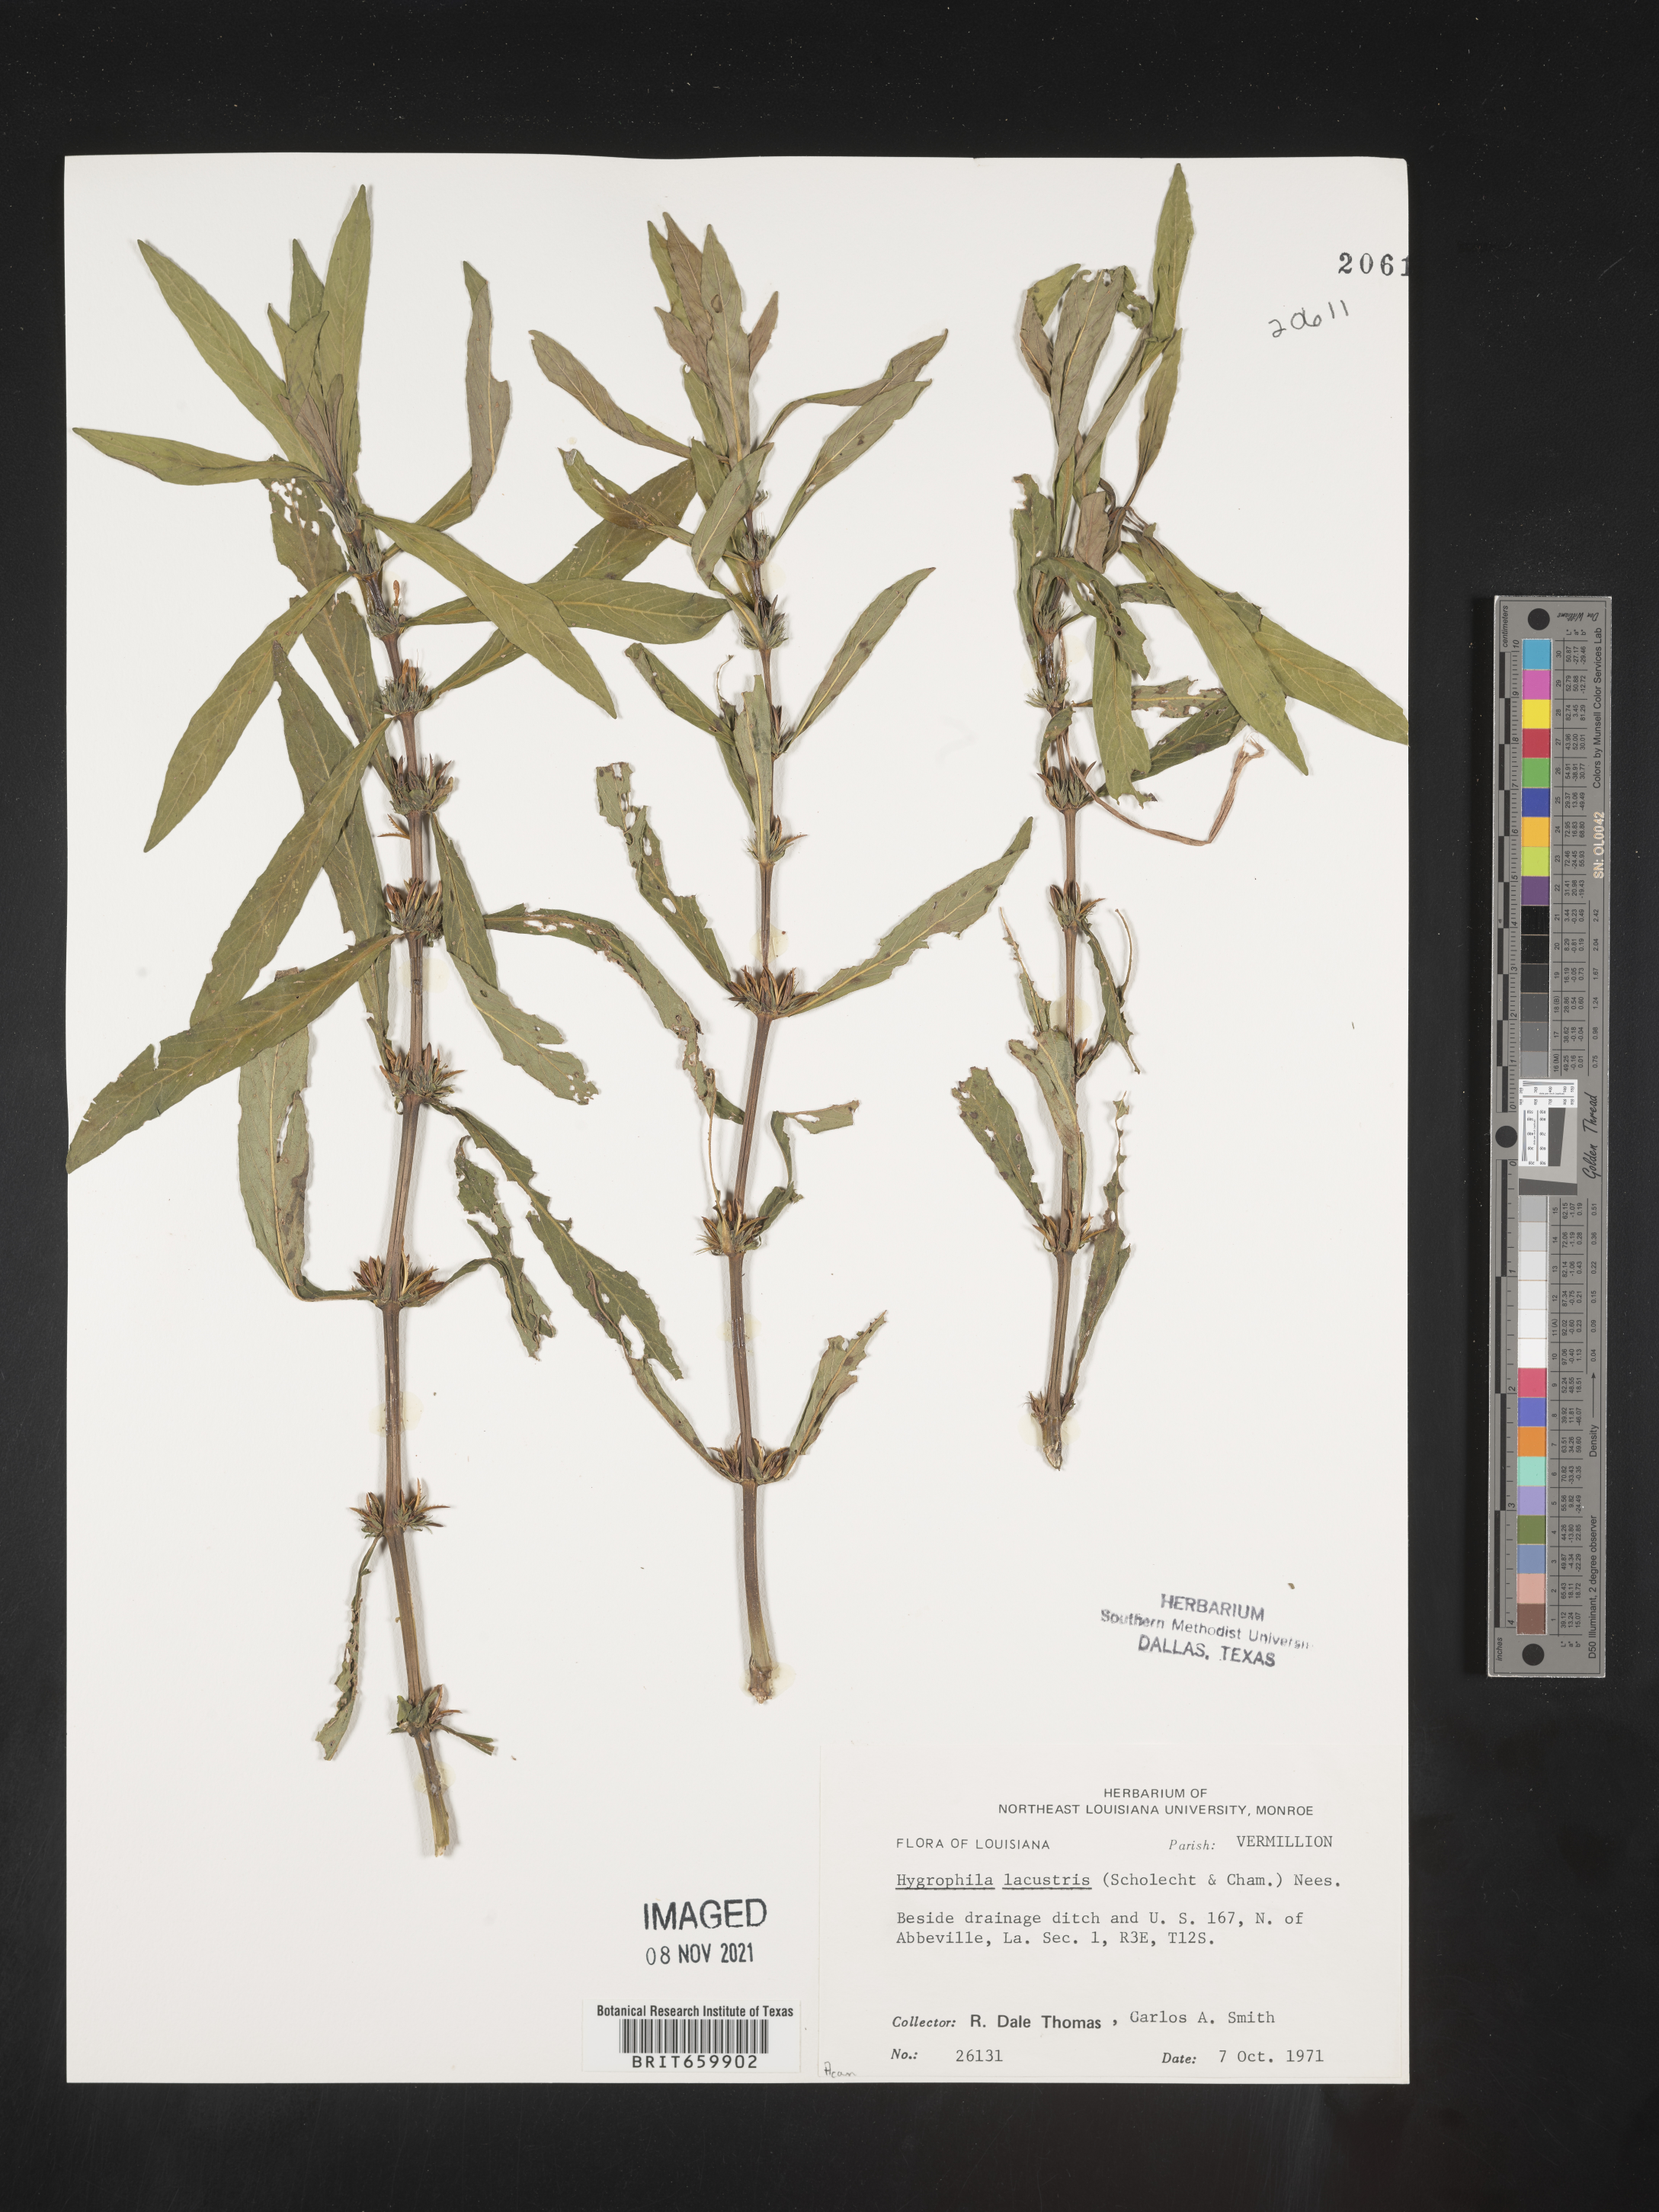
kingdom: Plantae
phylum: Tracheophyta
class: Magnoliopsida
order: Lamiales
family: Acanthaceae
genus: Hygrophila
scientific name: Hygrophila costata
